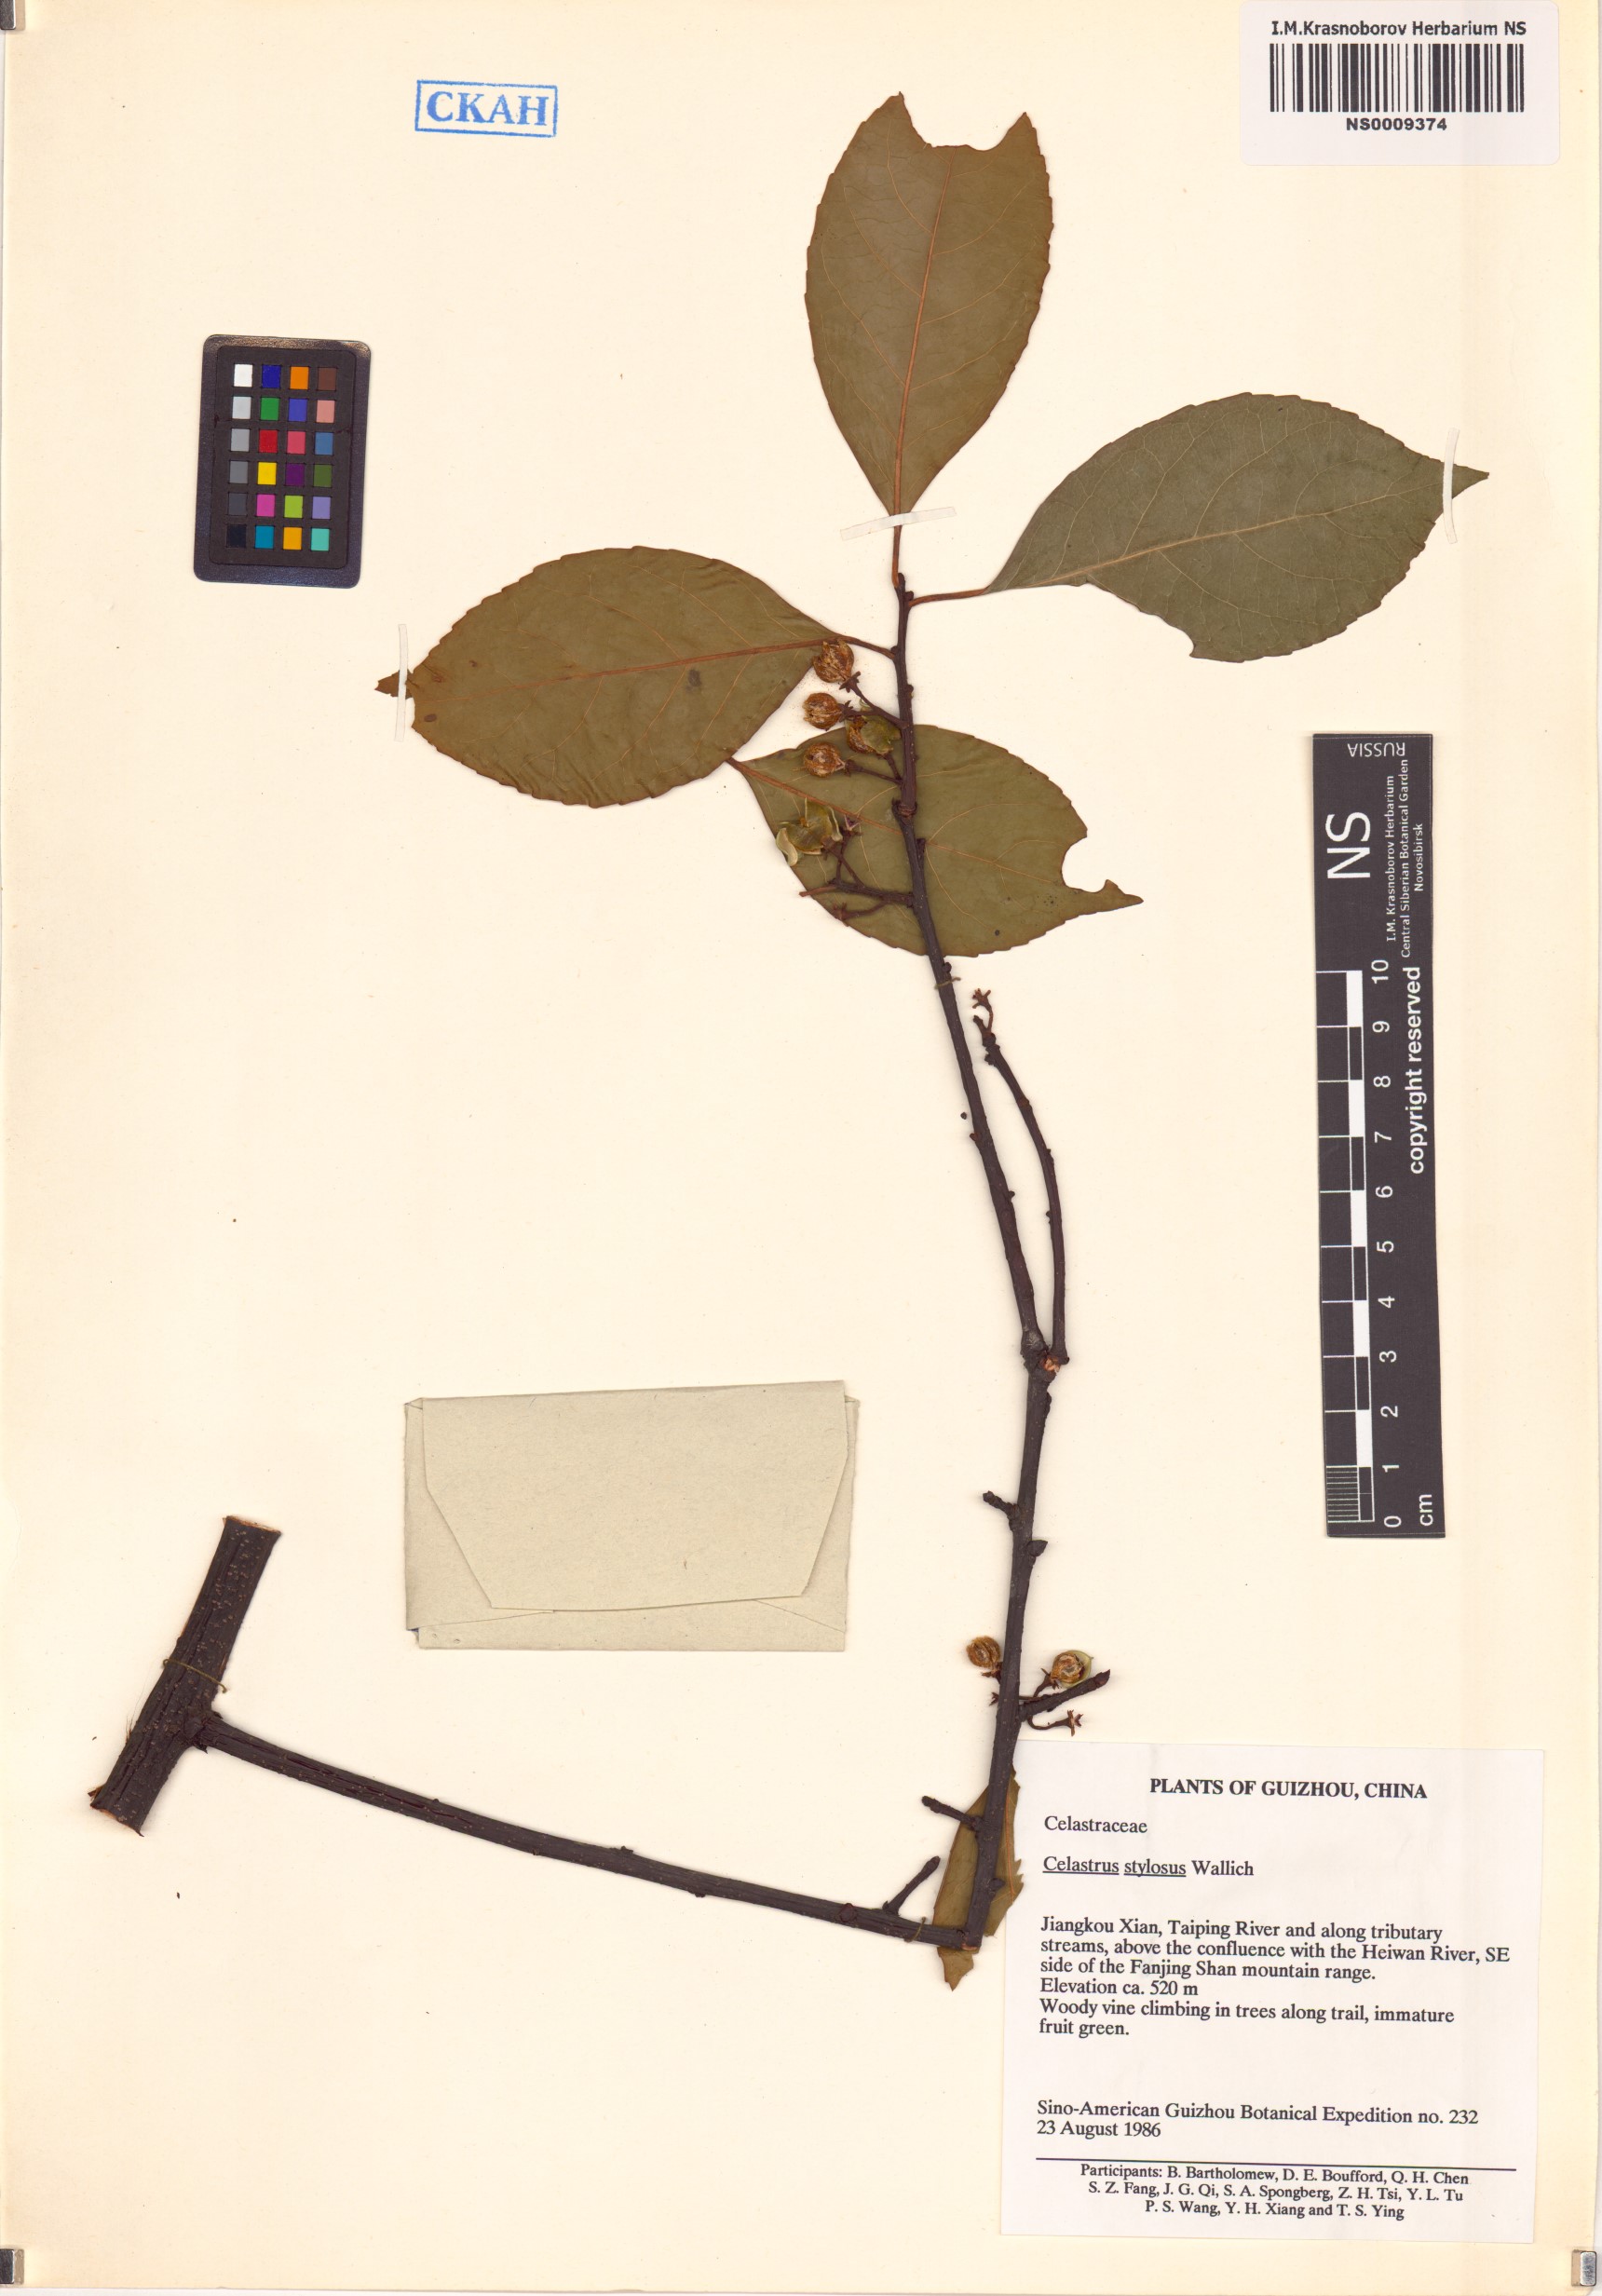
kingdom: Plantae
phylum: Tracheophyta
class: Magnoliopsida
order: Celastrales
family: Celastraceae
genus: Celastrus
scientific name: Celastrus stylosus
